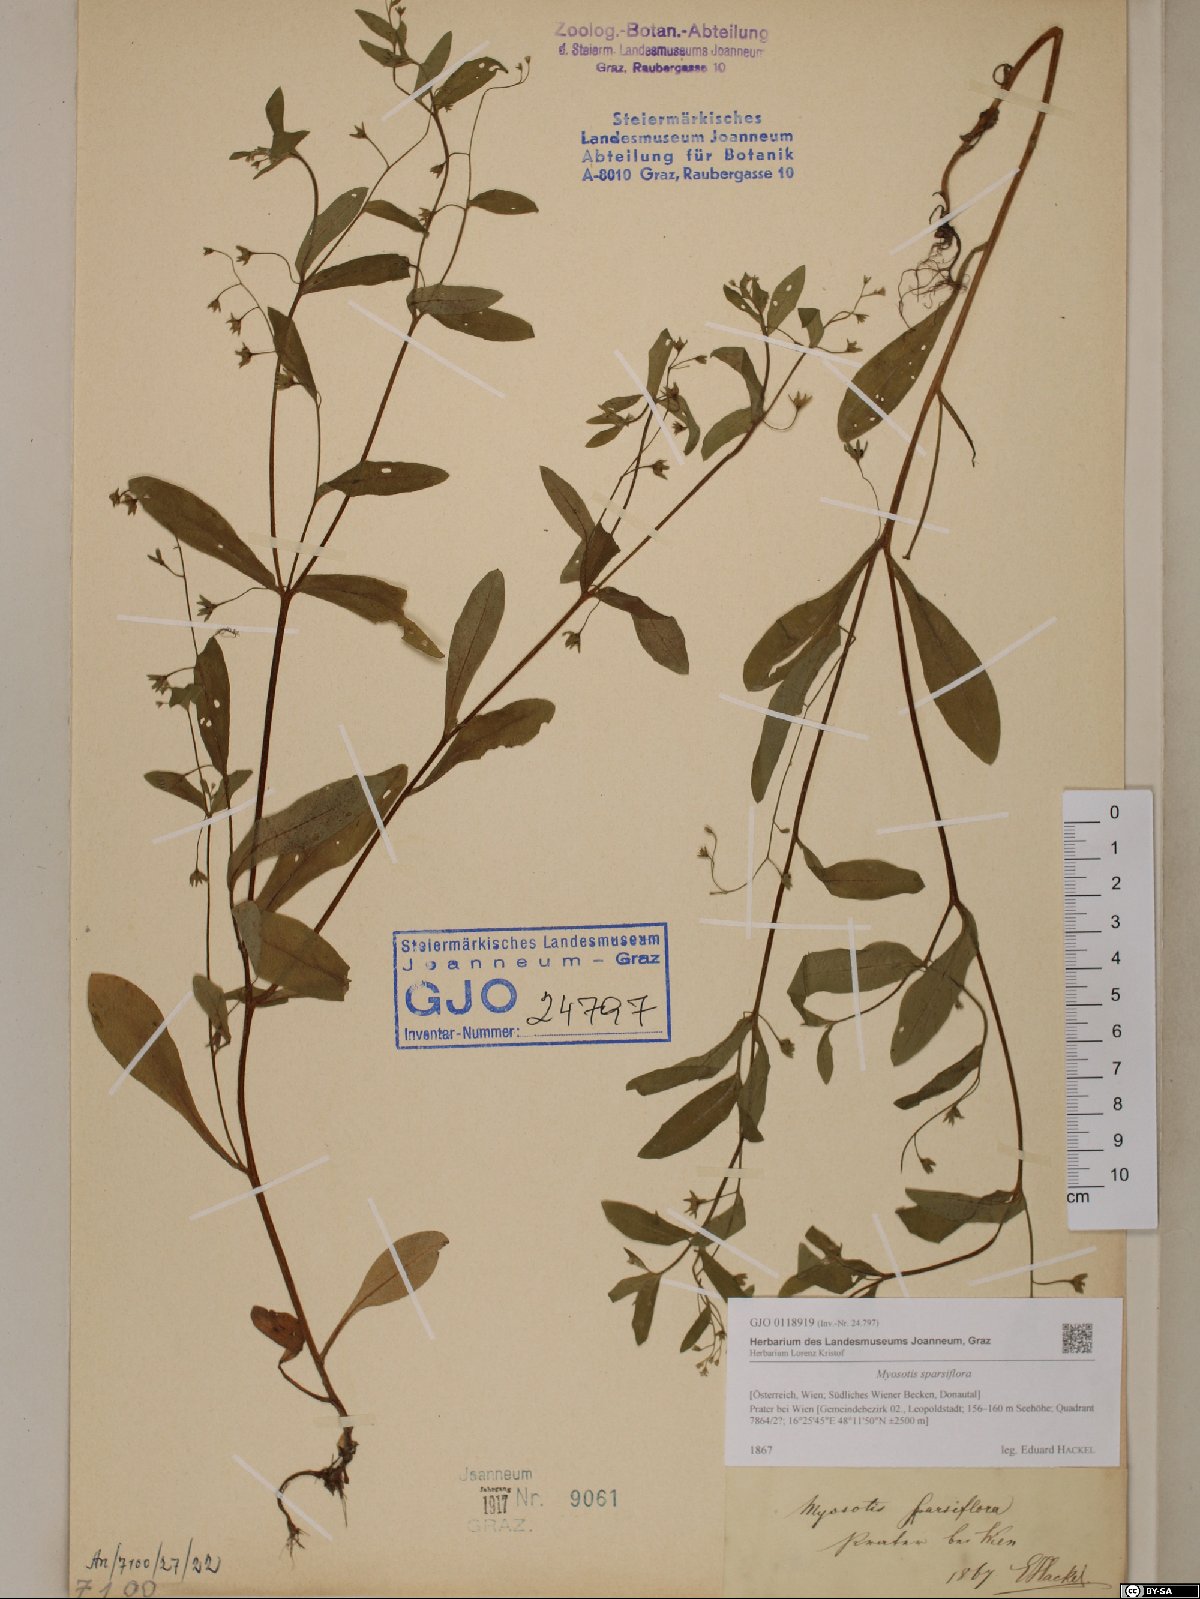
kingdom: Plantae
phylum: Tracheophyta
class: Magnoliopsida
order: Boraginales
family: Boraginaceae
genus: Myosotis
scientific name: Myosotis sparsiflora
